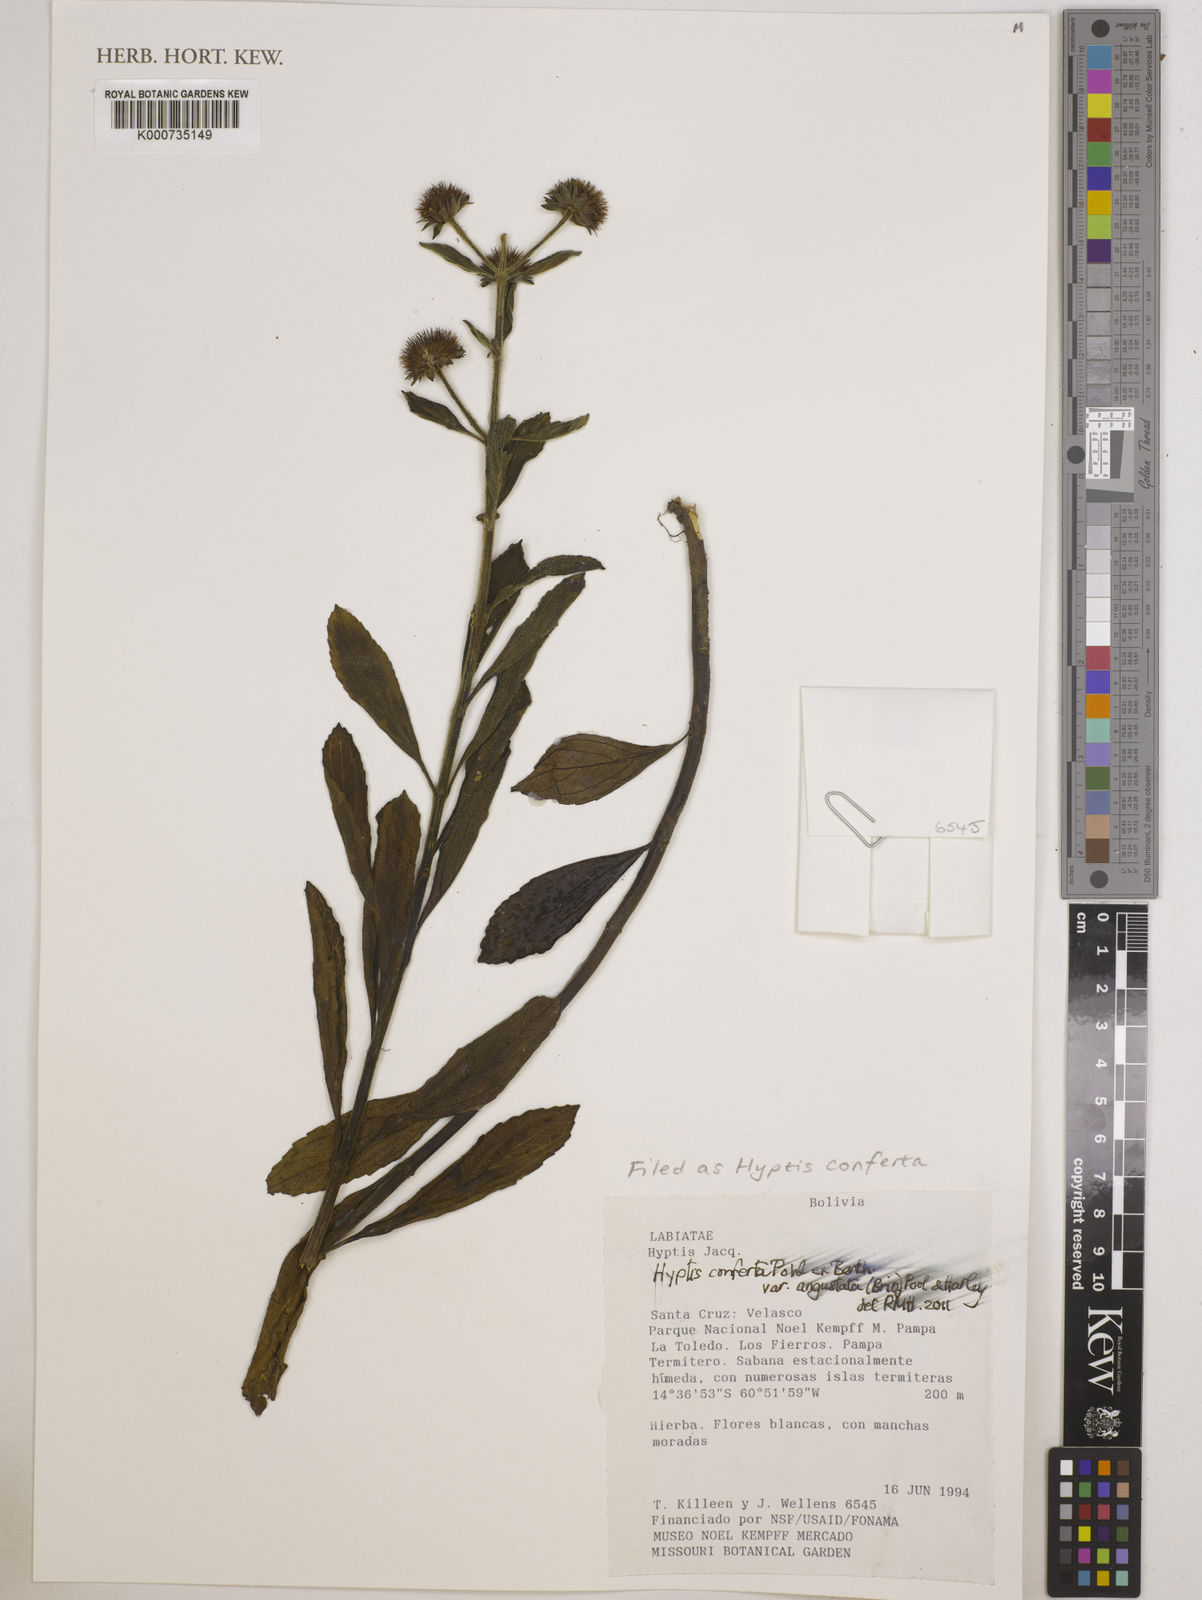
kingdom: Plantae
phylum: Tracheophyta
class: Magnoliopsida
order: Lamiales
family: Lamiaceae
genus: Hyptis
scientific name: Hyptis conferta
